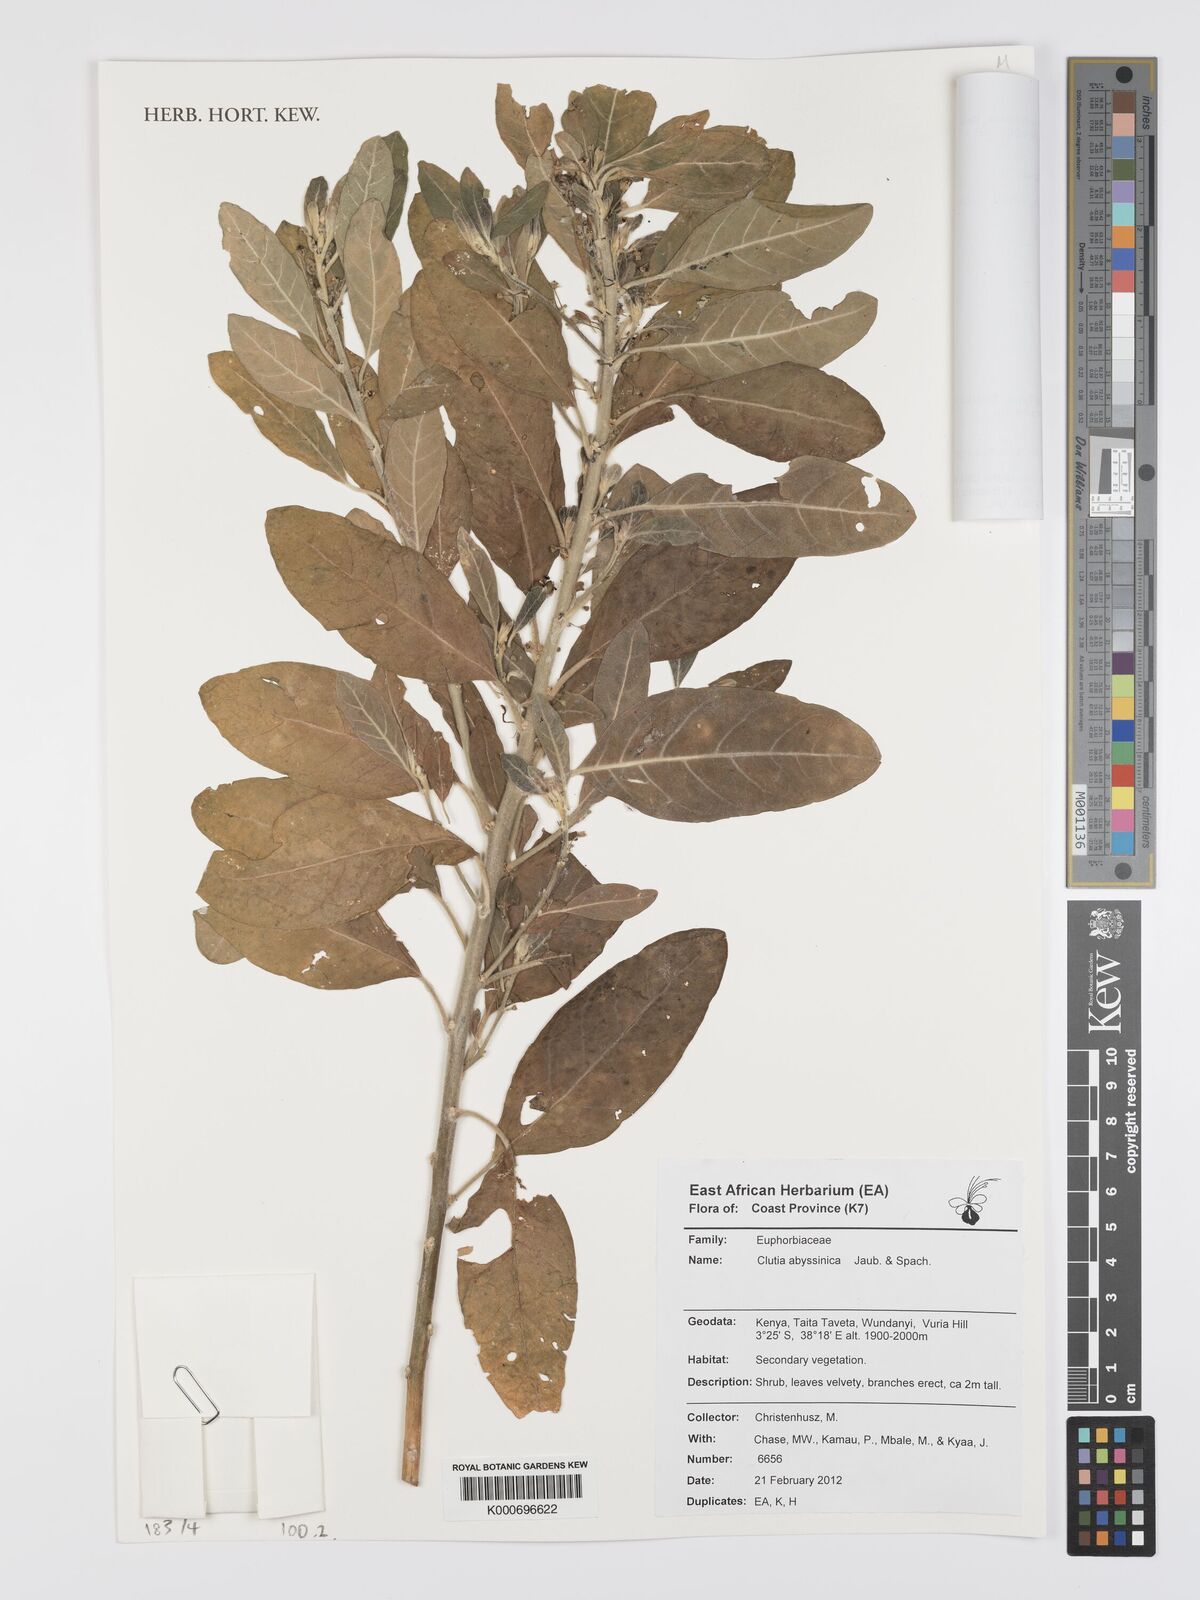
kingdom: Plantae
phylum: Tracheophyta
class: Magnoliopsida
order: Malpighiales
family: Peraceae
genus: Clutia
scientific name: Clutia abyssinica
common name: Large lightning bush
